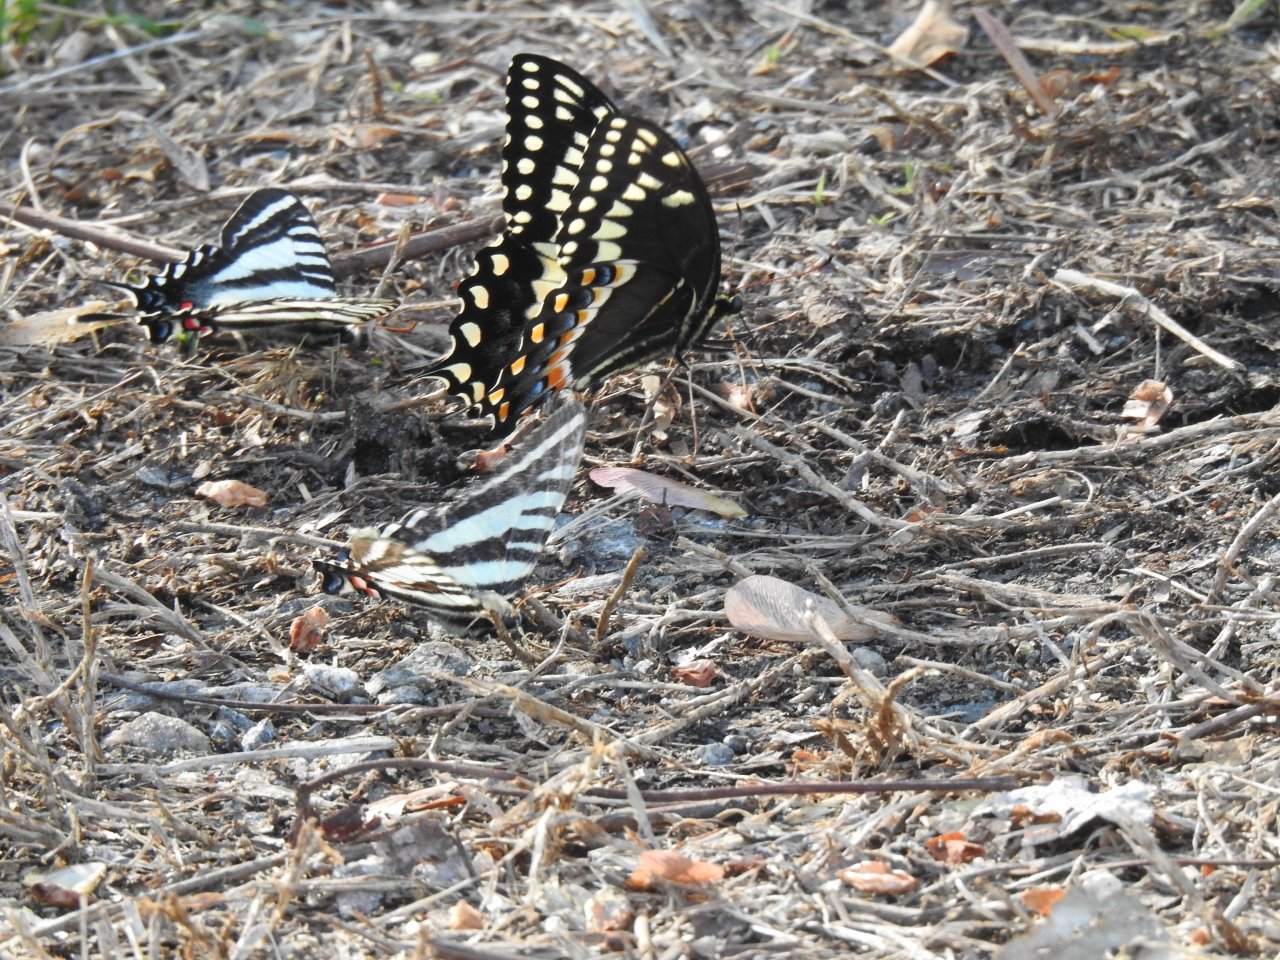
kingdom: Animalia
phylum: Arthropoda
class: Insecta
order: Lepidoptera
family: Papilionidae
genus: Pterourus
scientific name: Pterourus palamedes
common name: Palamedes Swallowtail
